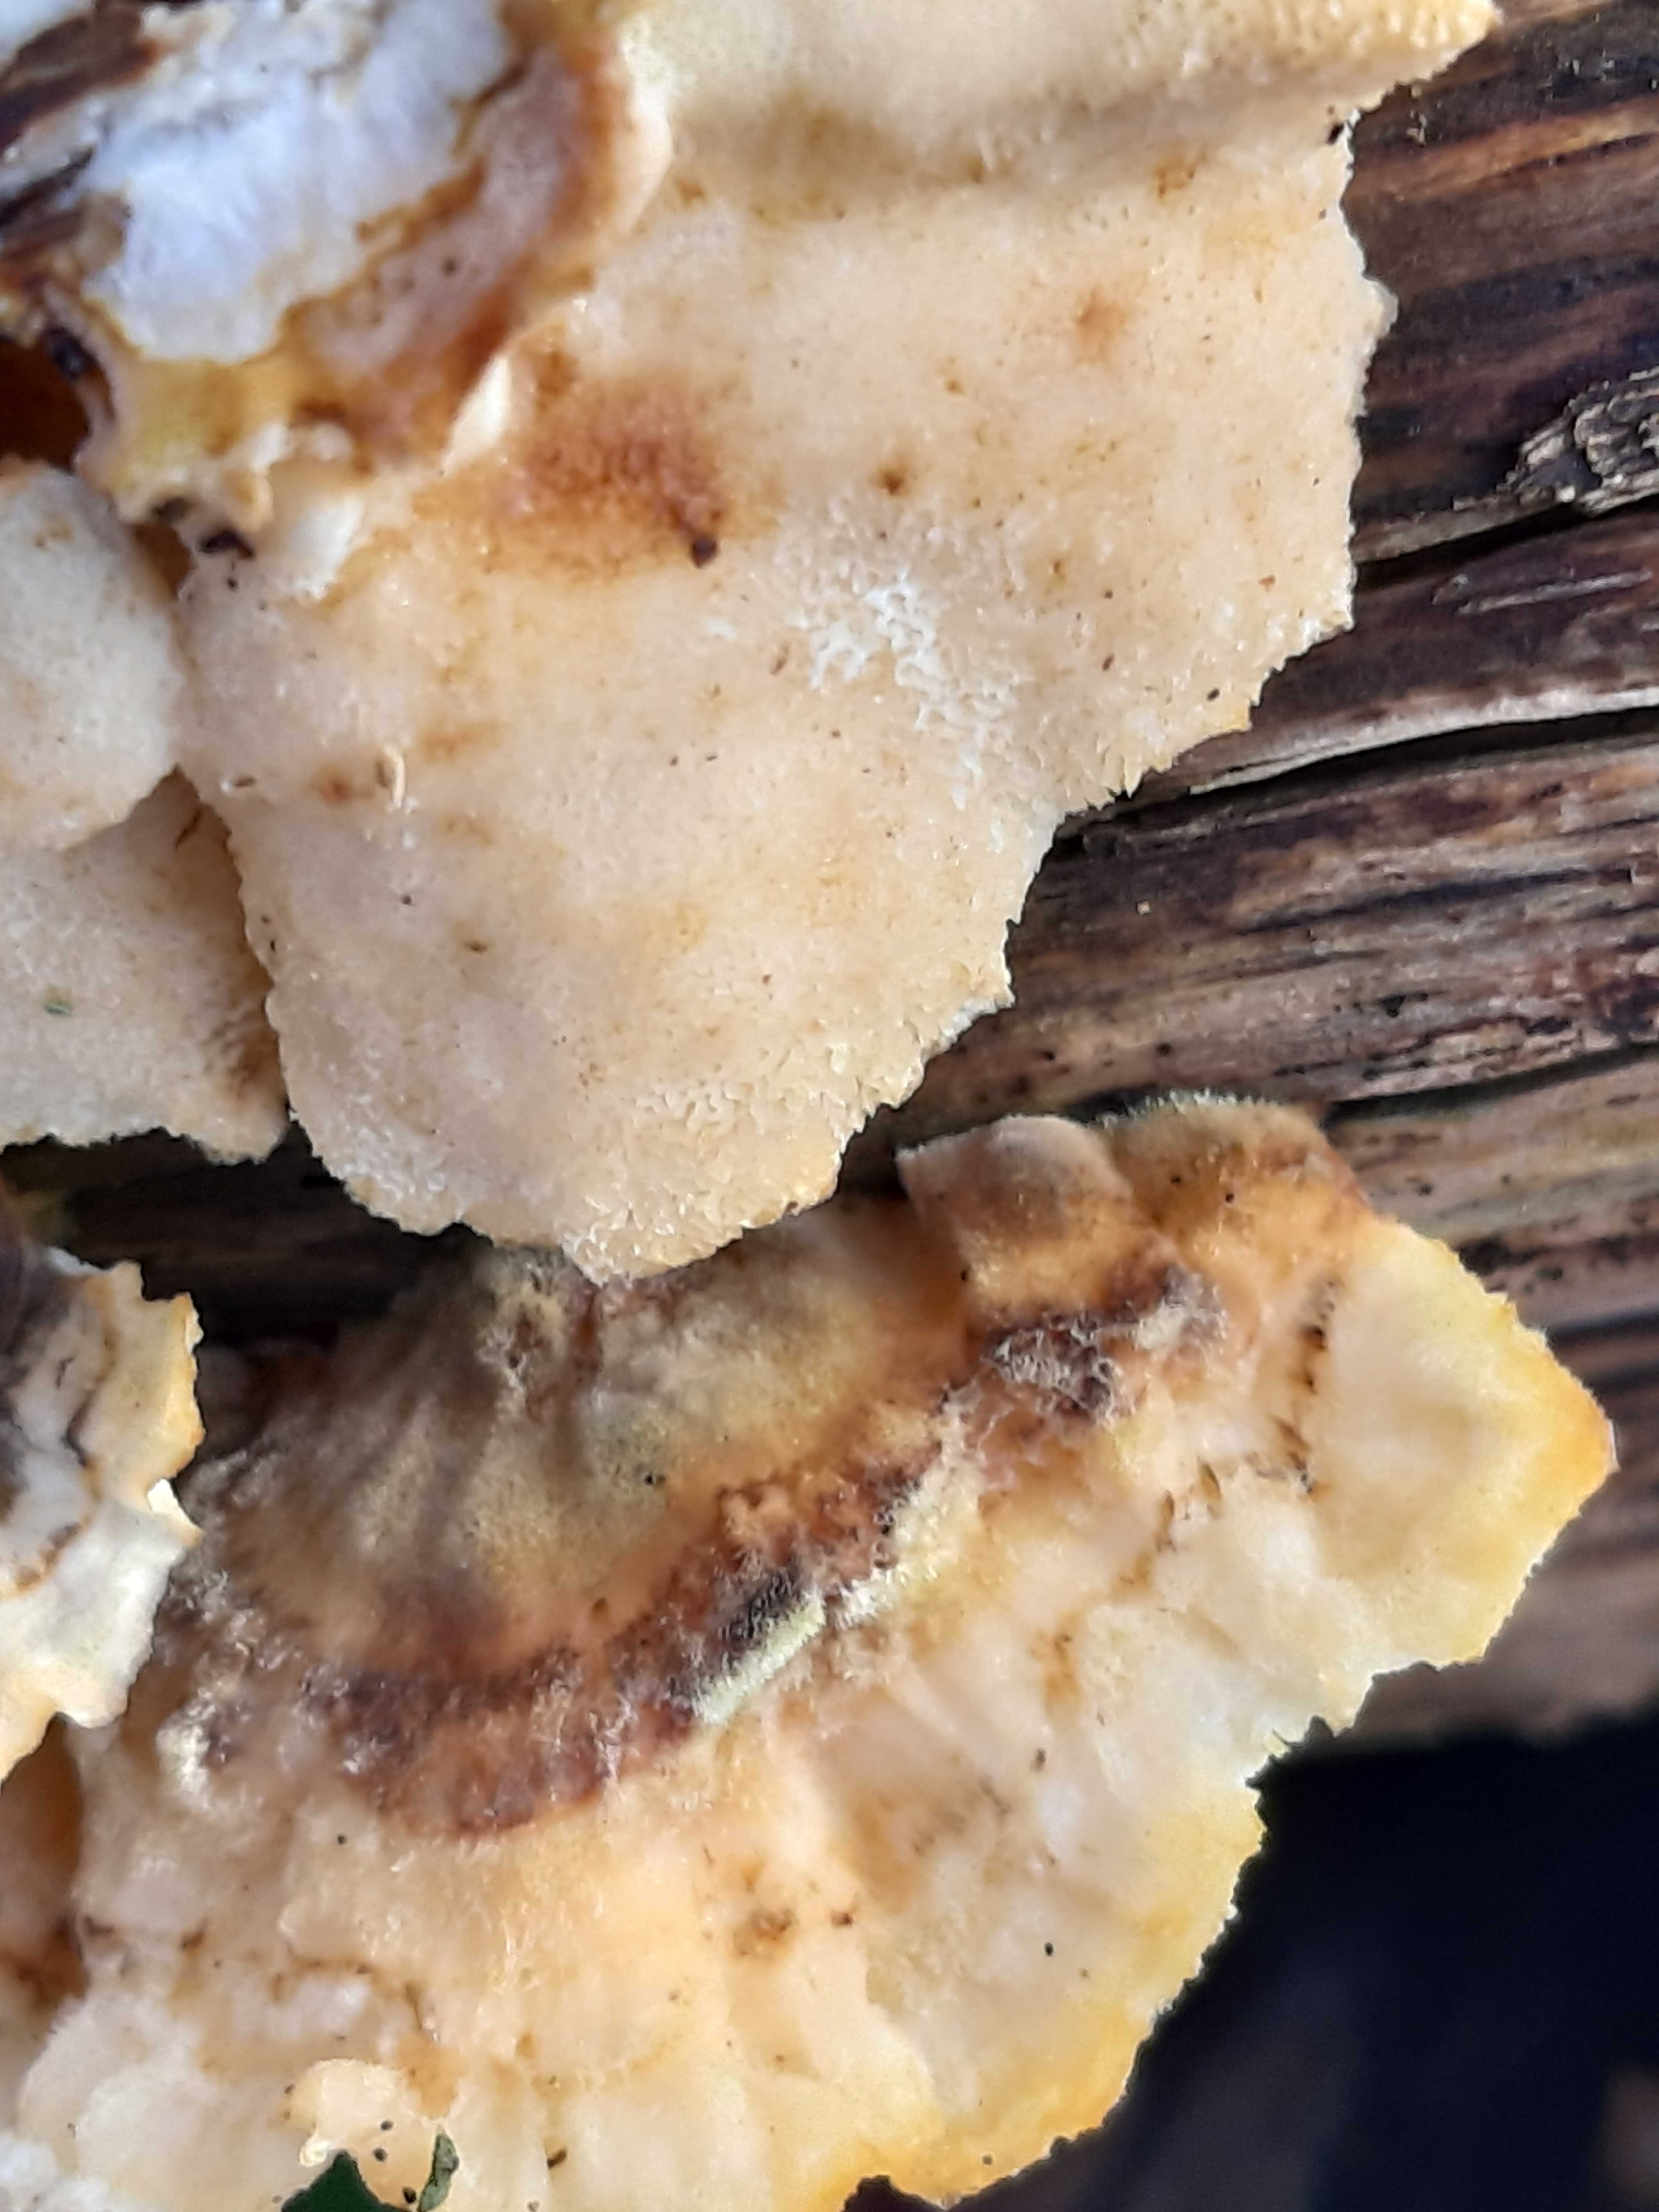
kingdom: Fungi
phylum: Basidiomycota
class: Agaricomycetes
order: Polyporales
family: Polyporaceae
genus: Trametes
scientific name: Trametes versicolor
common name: broget læderporesvamp
